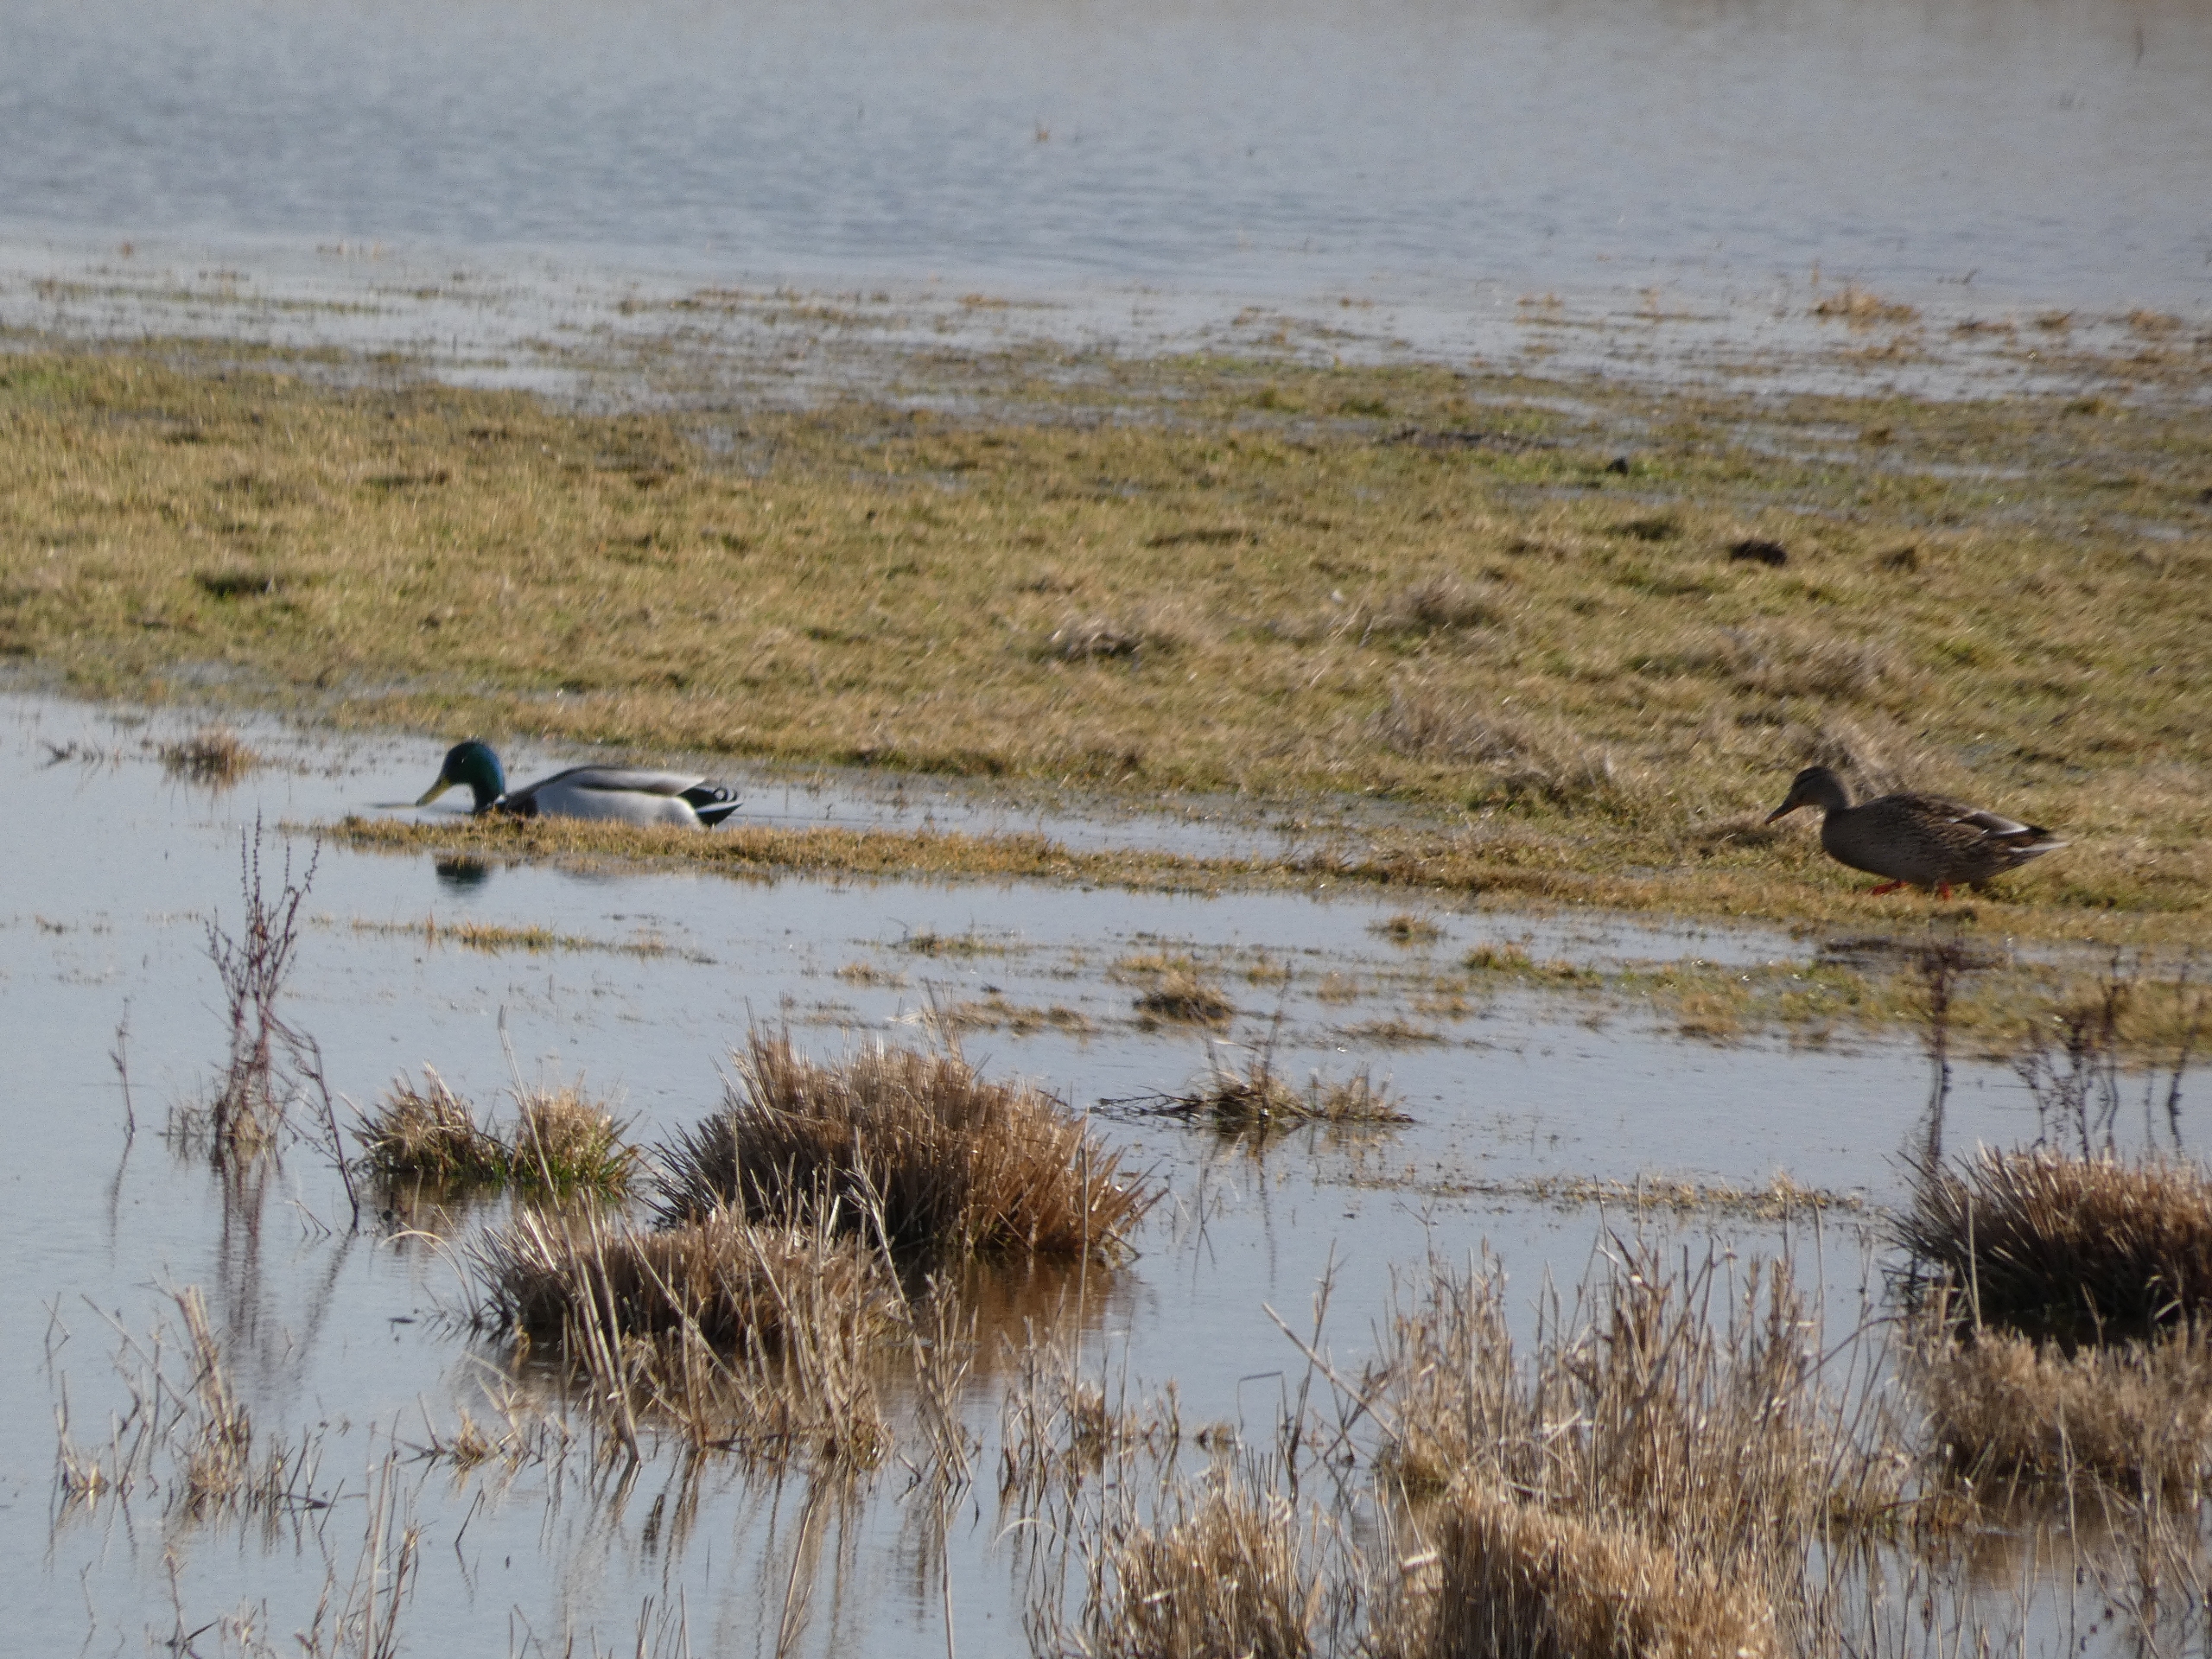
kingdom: Animalia
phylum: Chordata
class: Aves
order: Anseriformes
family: Anatidae
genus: Anas
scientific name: Anas platyrhynchos
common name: Gråand
